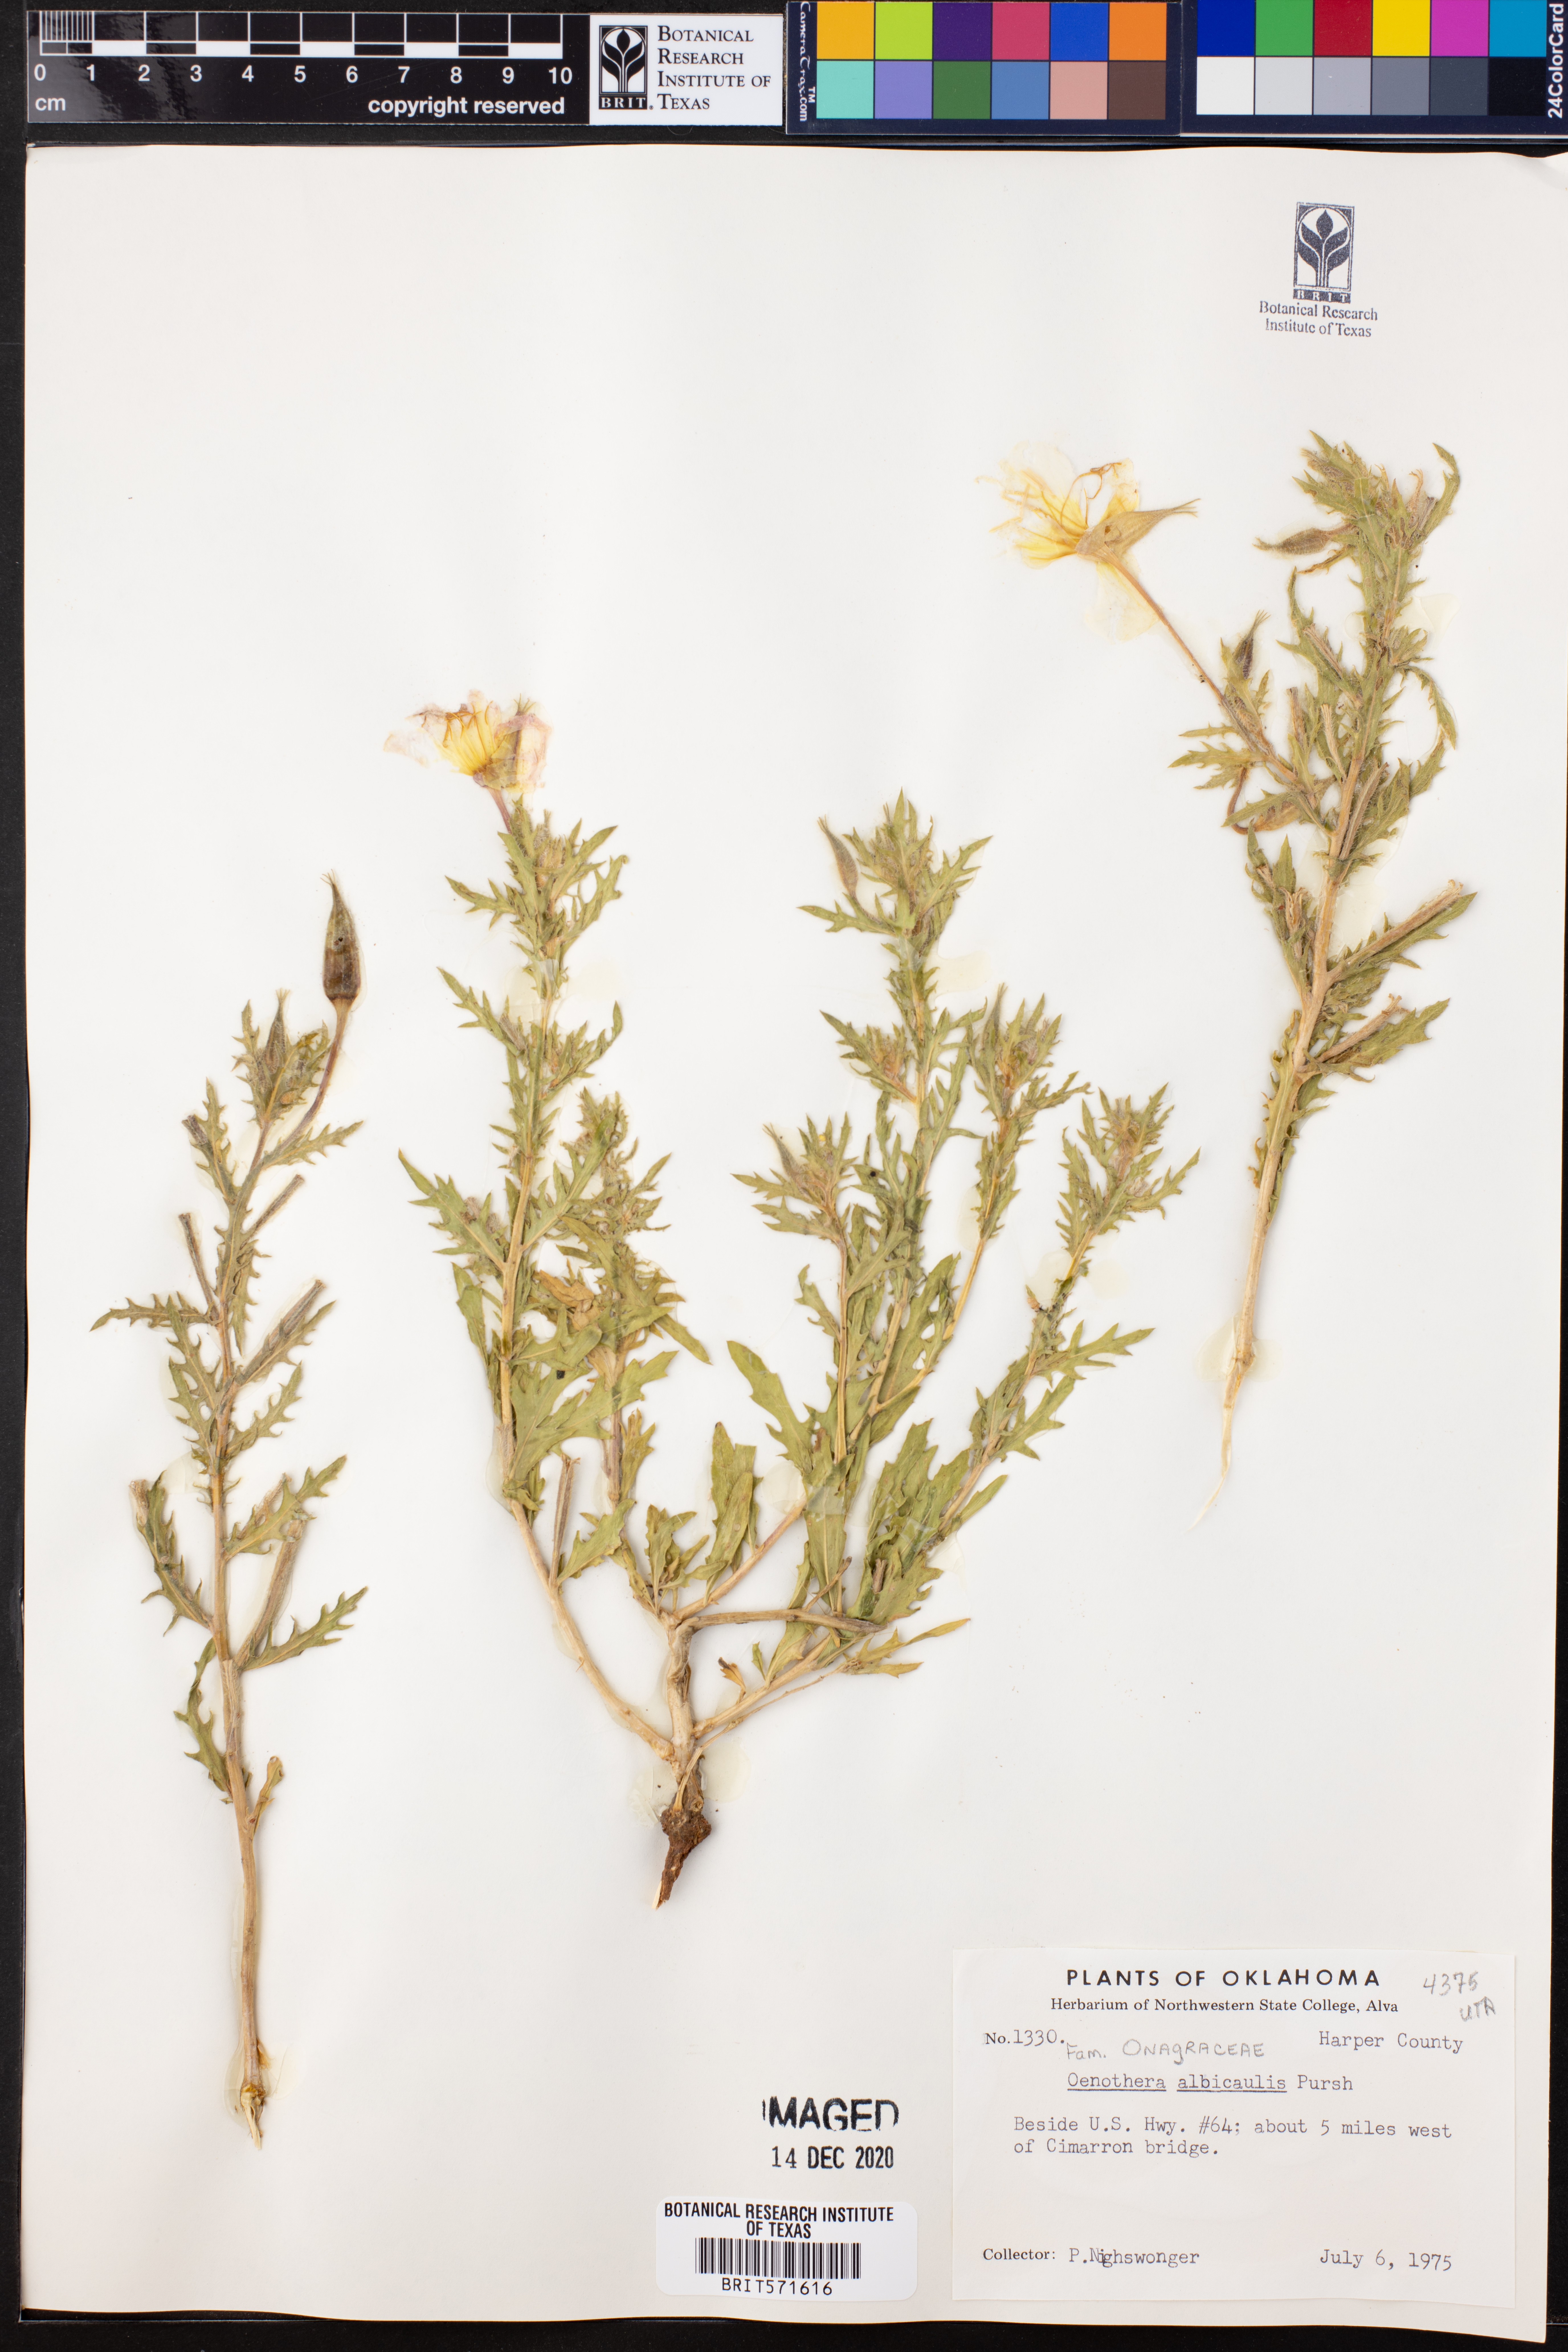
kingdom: Plantae
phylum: Tracheophyta
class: Magnoliopsida
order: Myrtales
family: Onagraceae
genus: Oenothera
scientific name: Oenothera albicaulis
